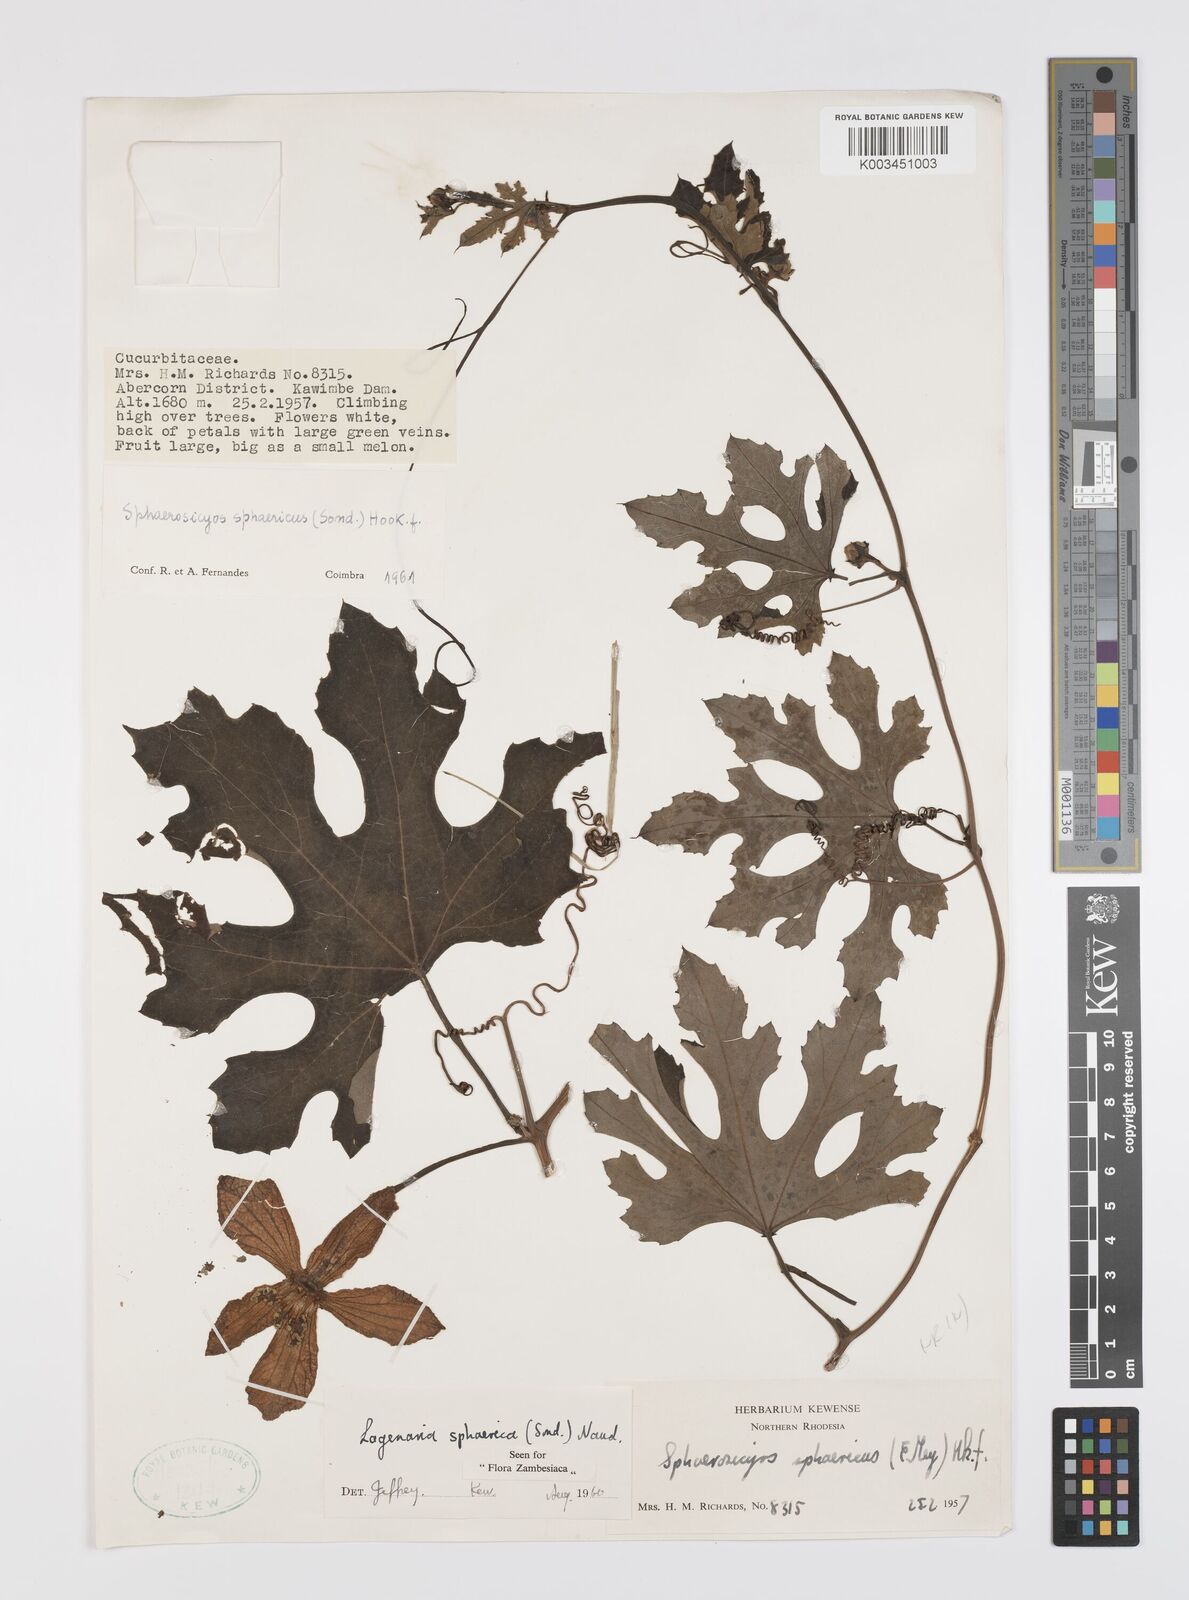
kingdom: Plantae
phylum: Tracheophyta
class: Magnoliopsida
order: Cucurbitales
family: Cucurbitaceae
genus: Lagenaria
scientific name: Lagenaria sphaerica
